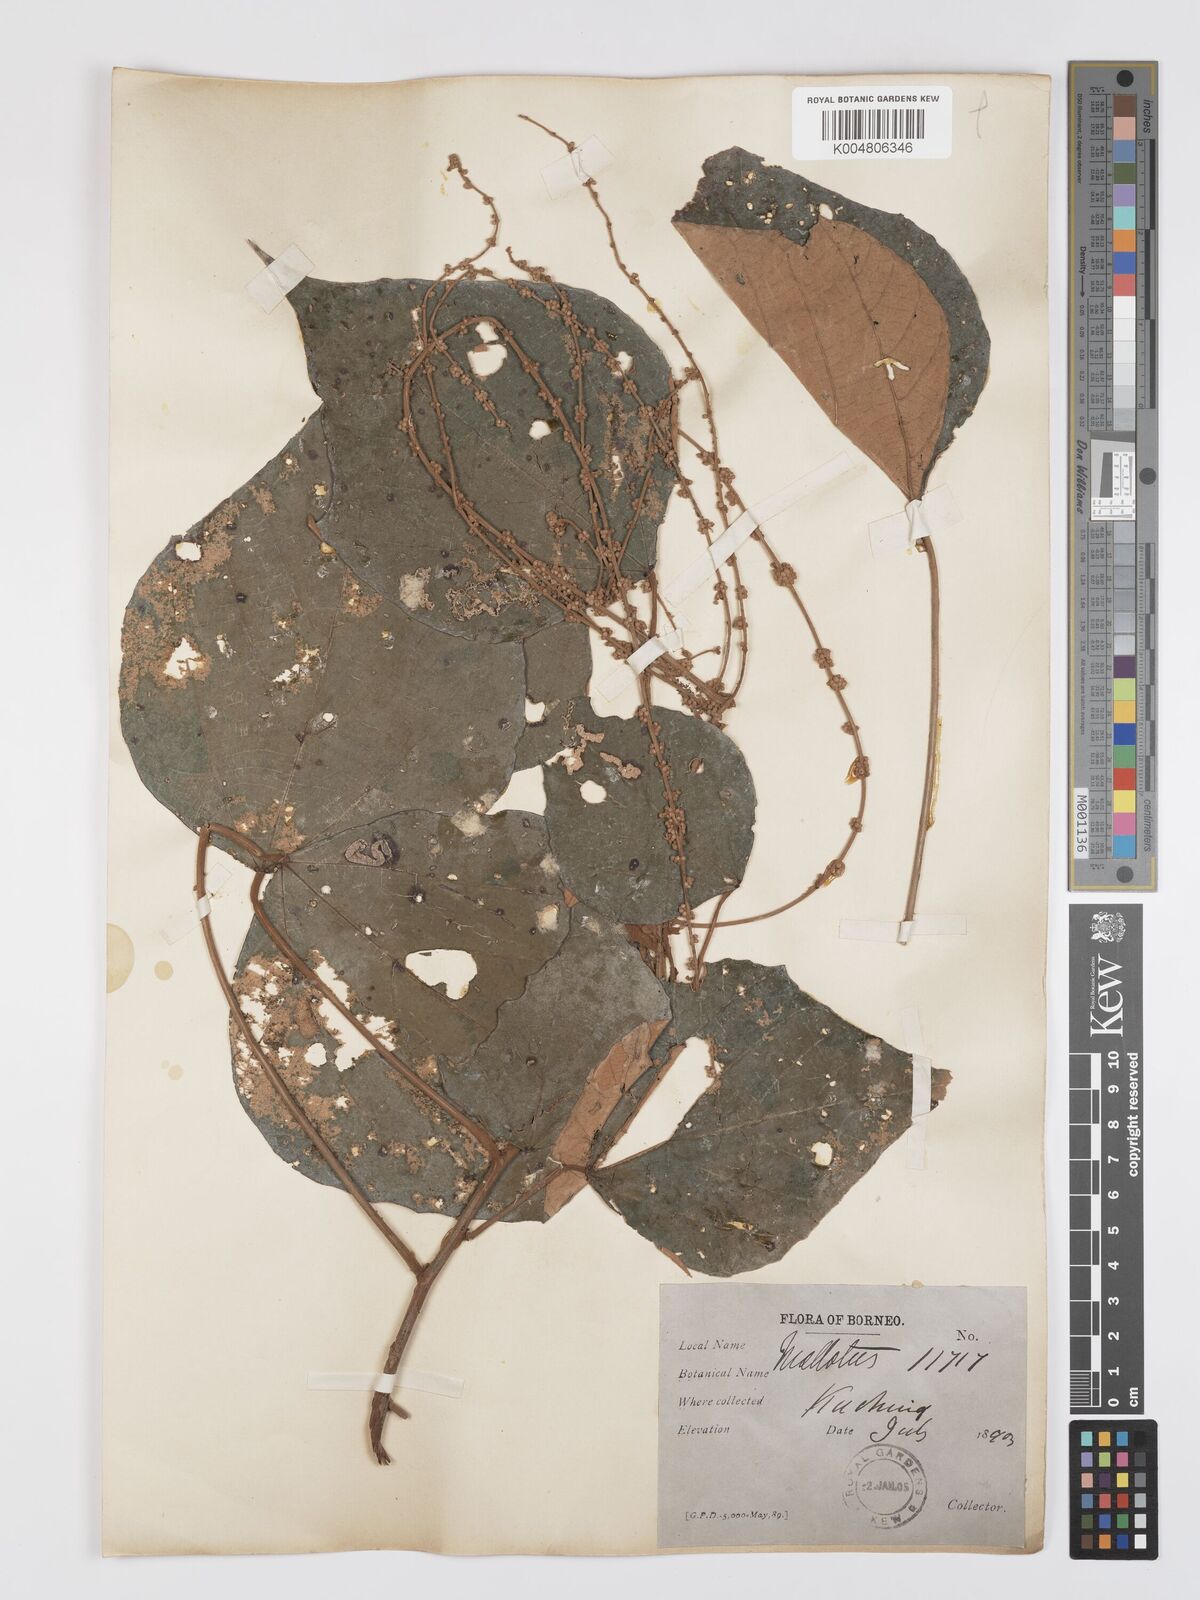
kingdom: Plantae
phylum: Tracheophyta
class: Magnoliopsida
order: Malpighiales
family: Euphorbiaceae
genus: Mallotus
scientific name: Mallotus paniculatus
